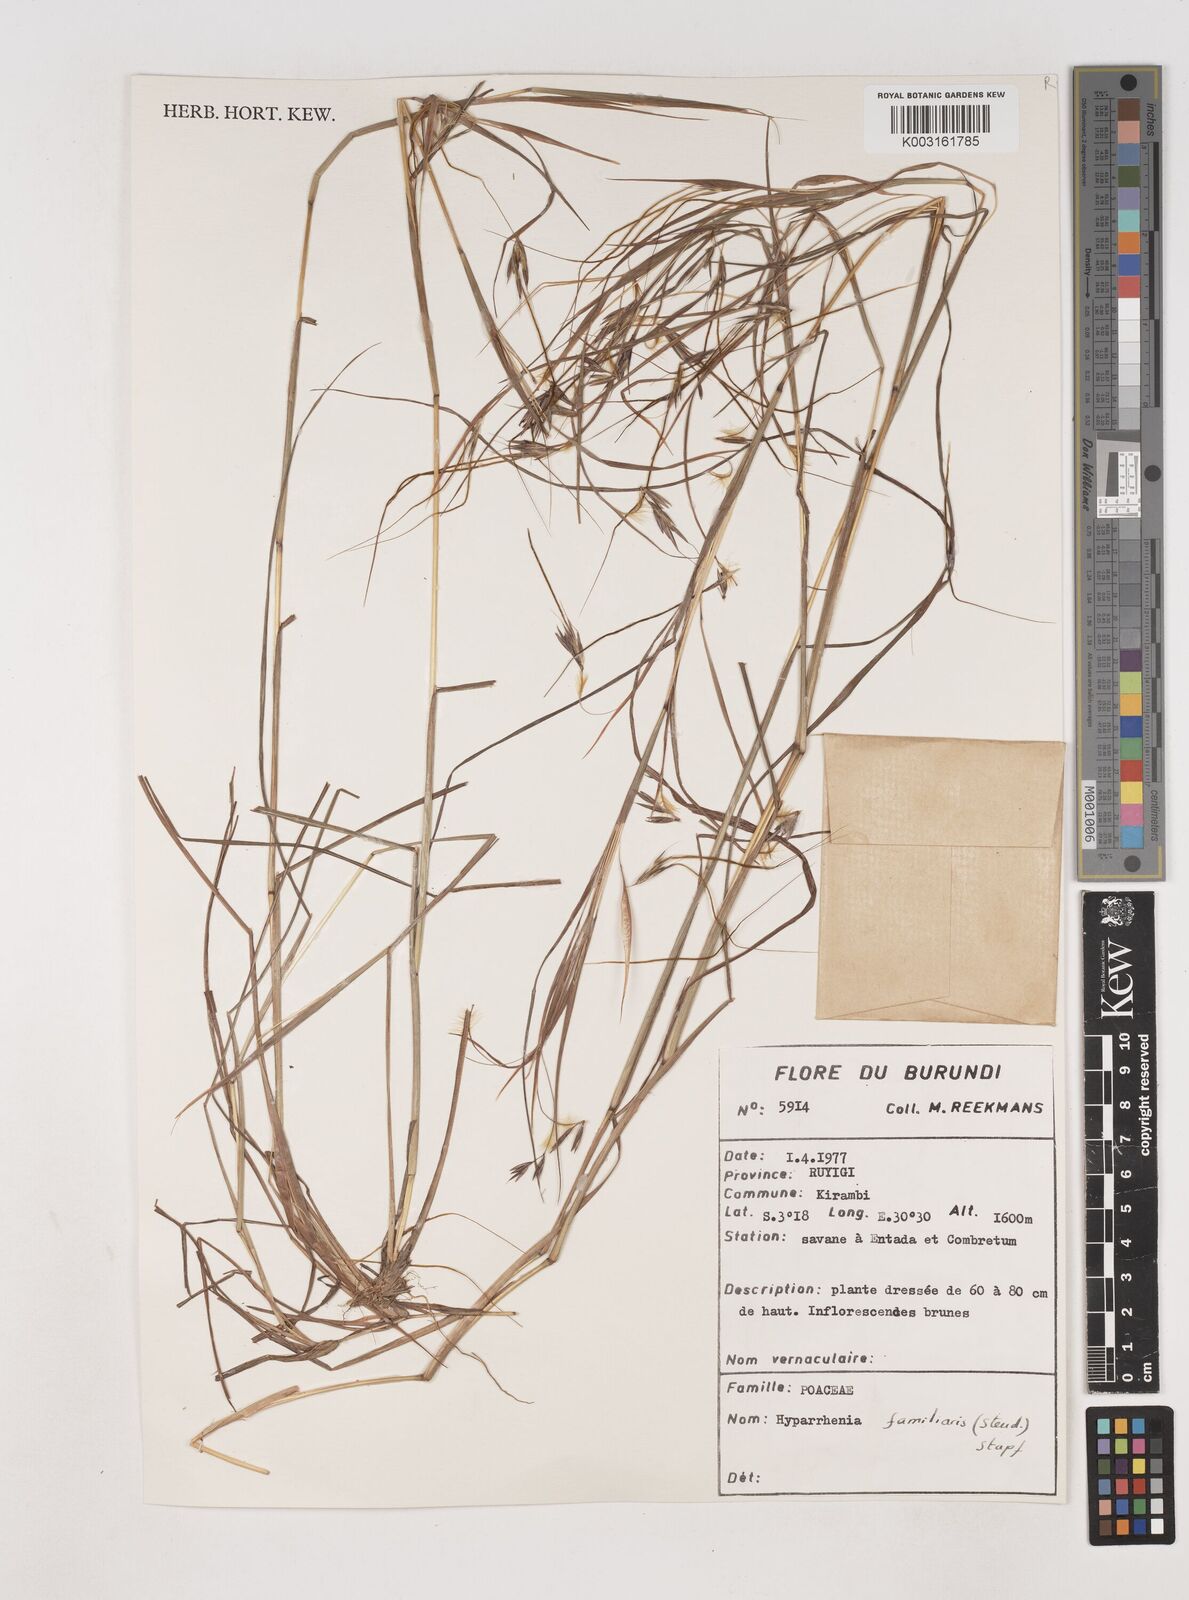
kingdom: Plantae
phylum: Tracheophyta
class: Liliopsida
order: Poales
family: Poaceae
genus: Hyparrhenia
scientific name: Hyparrhenia familiaris
